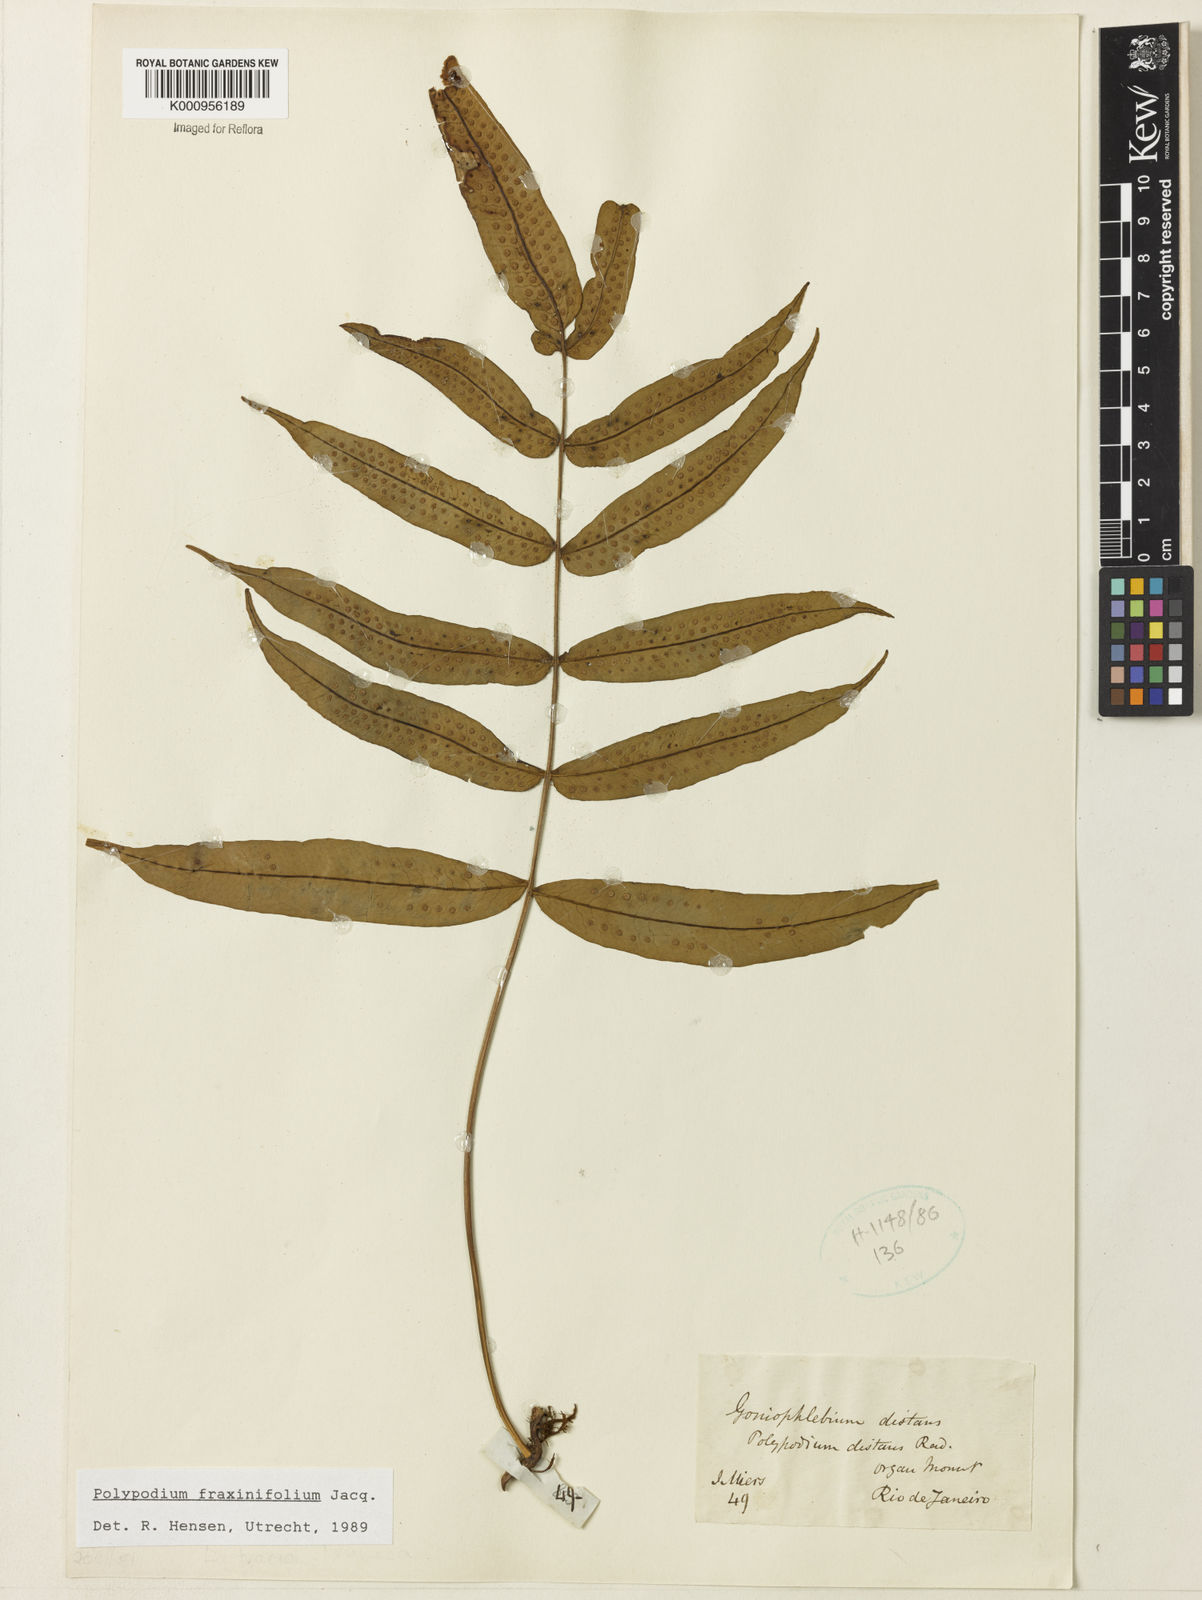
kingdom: Plantae
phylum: Tracheophyta
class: Polypodiopsida
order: Polypodiales
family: Polypodiaceae
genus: Serpocaulon
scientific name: Serpocaulon fraxinifolium
